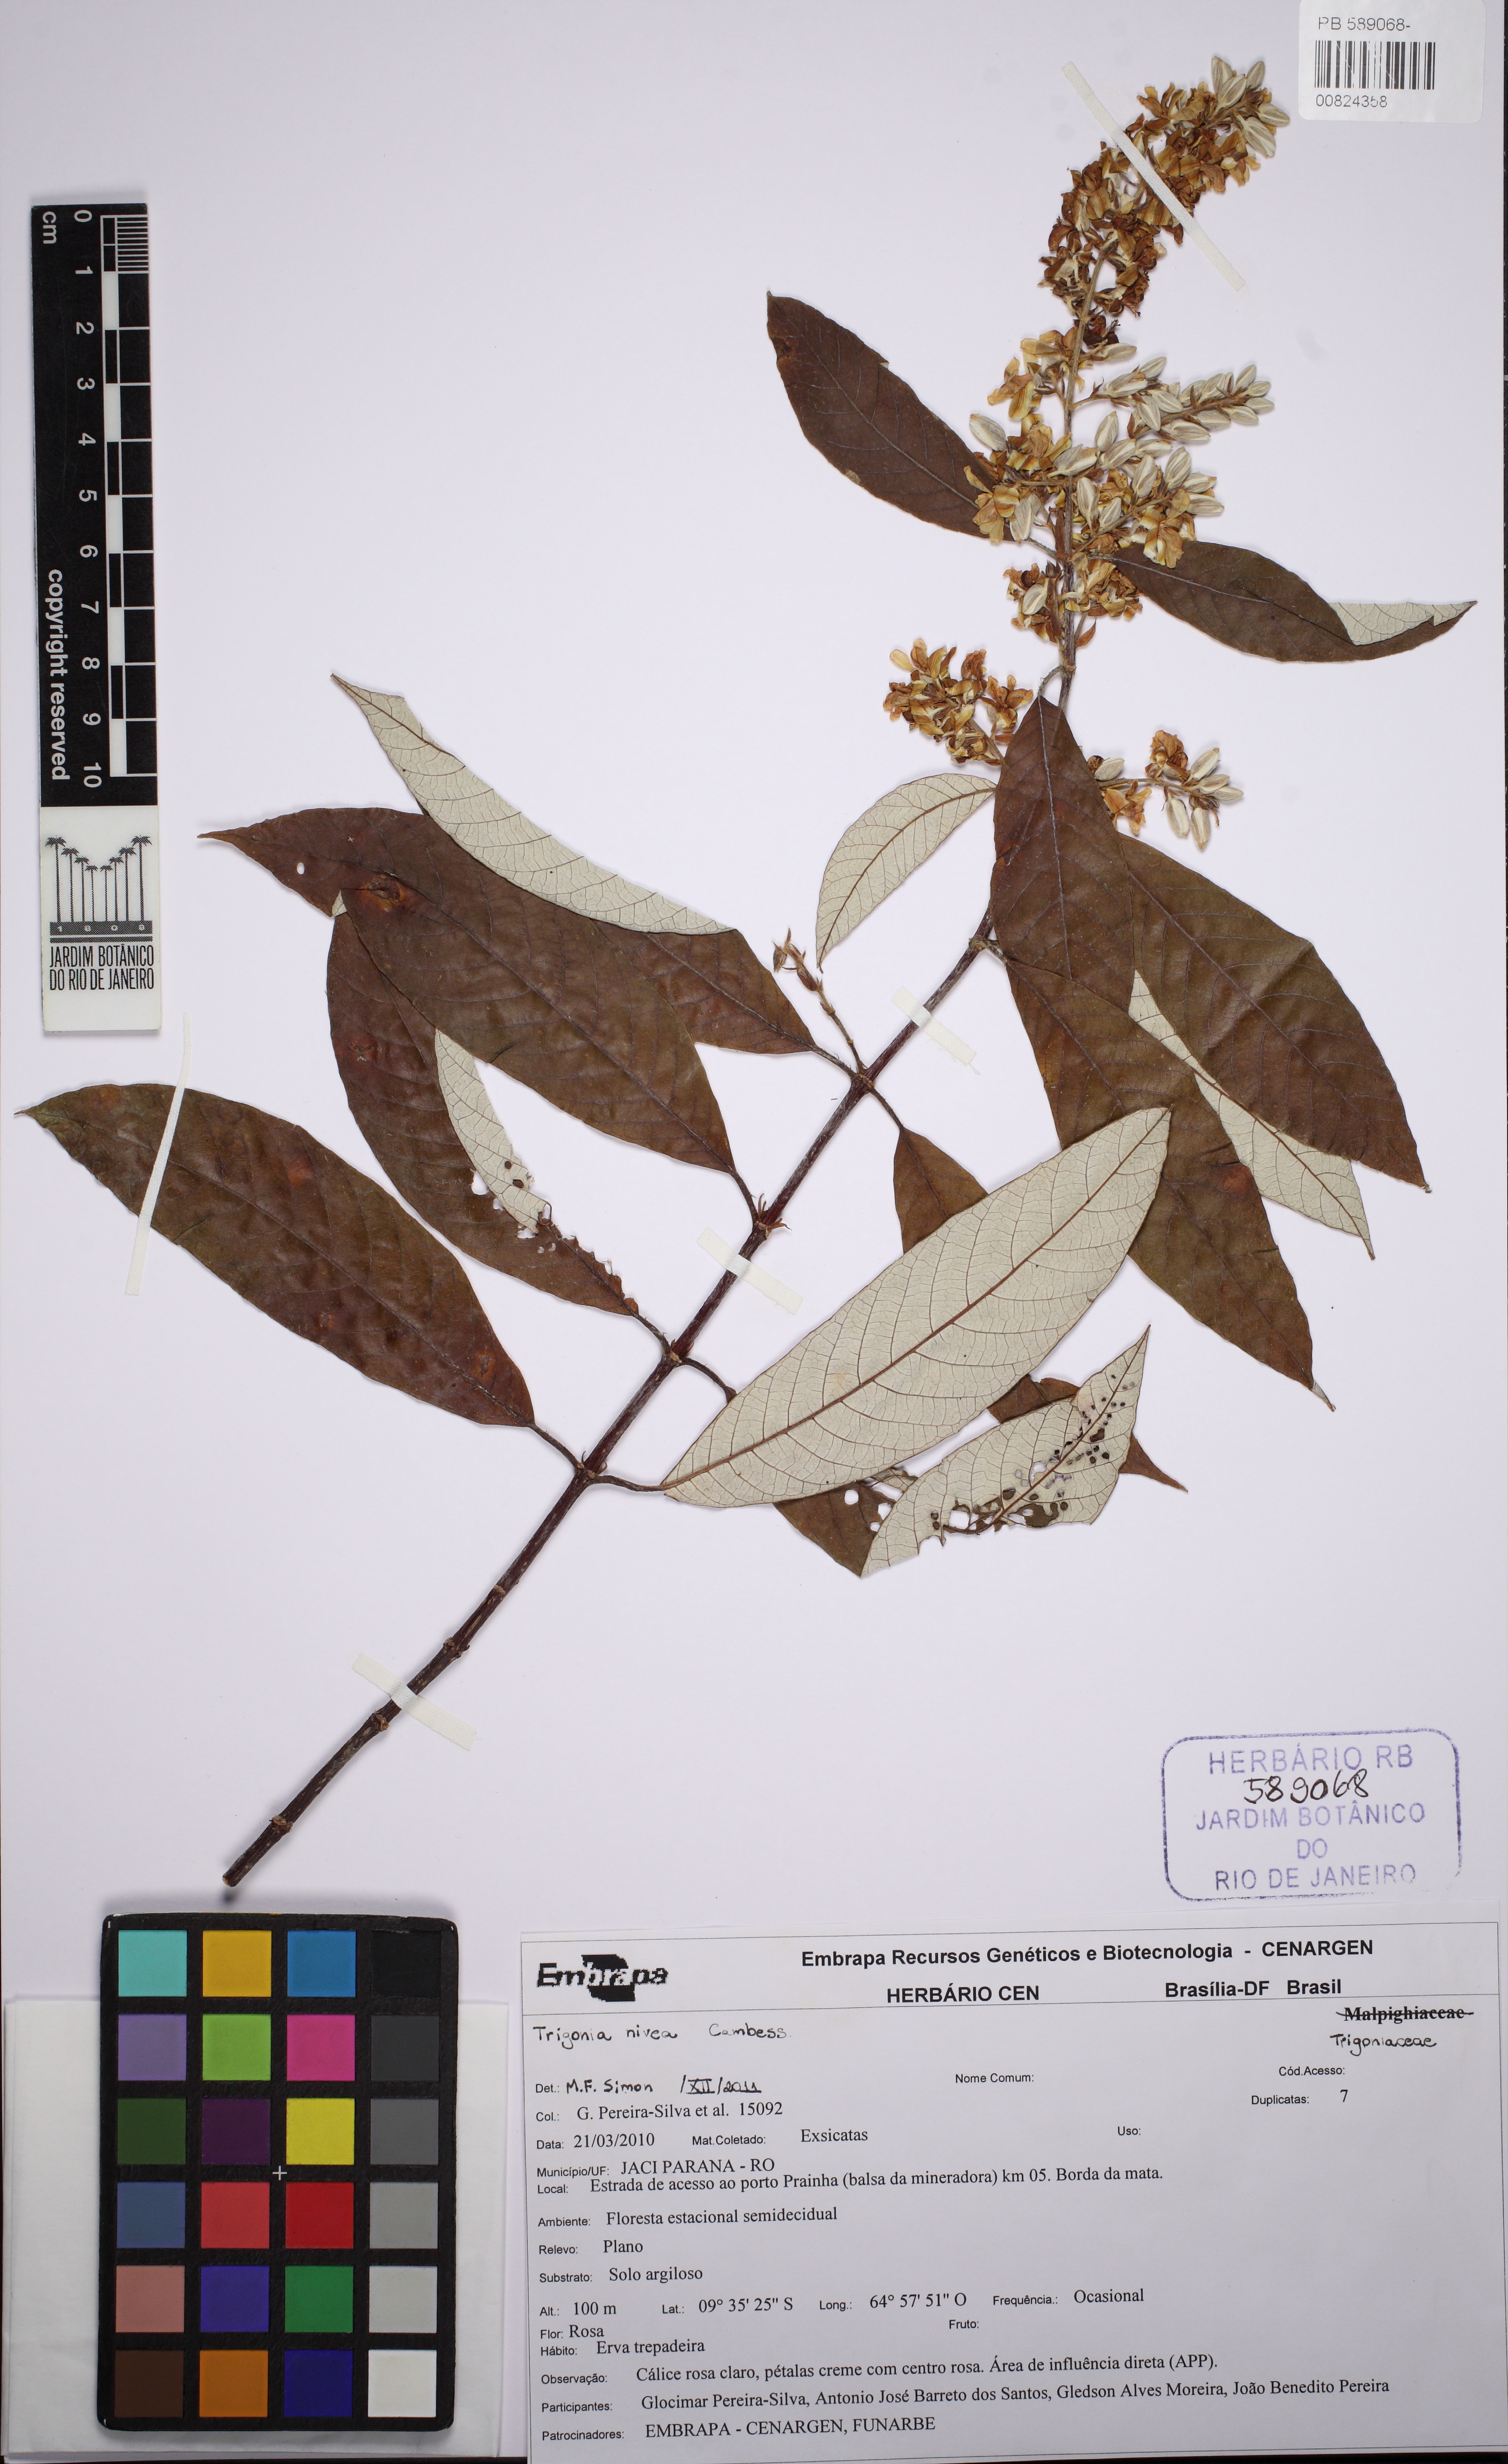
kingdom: Plantae
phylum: Tracheophyta
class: Magnoliopsida
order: Malpighiales
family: Trigoniaceae
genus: Trigonia
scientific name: Trigonia nivea
